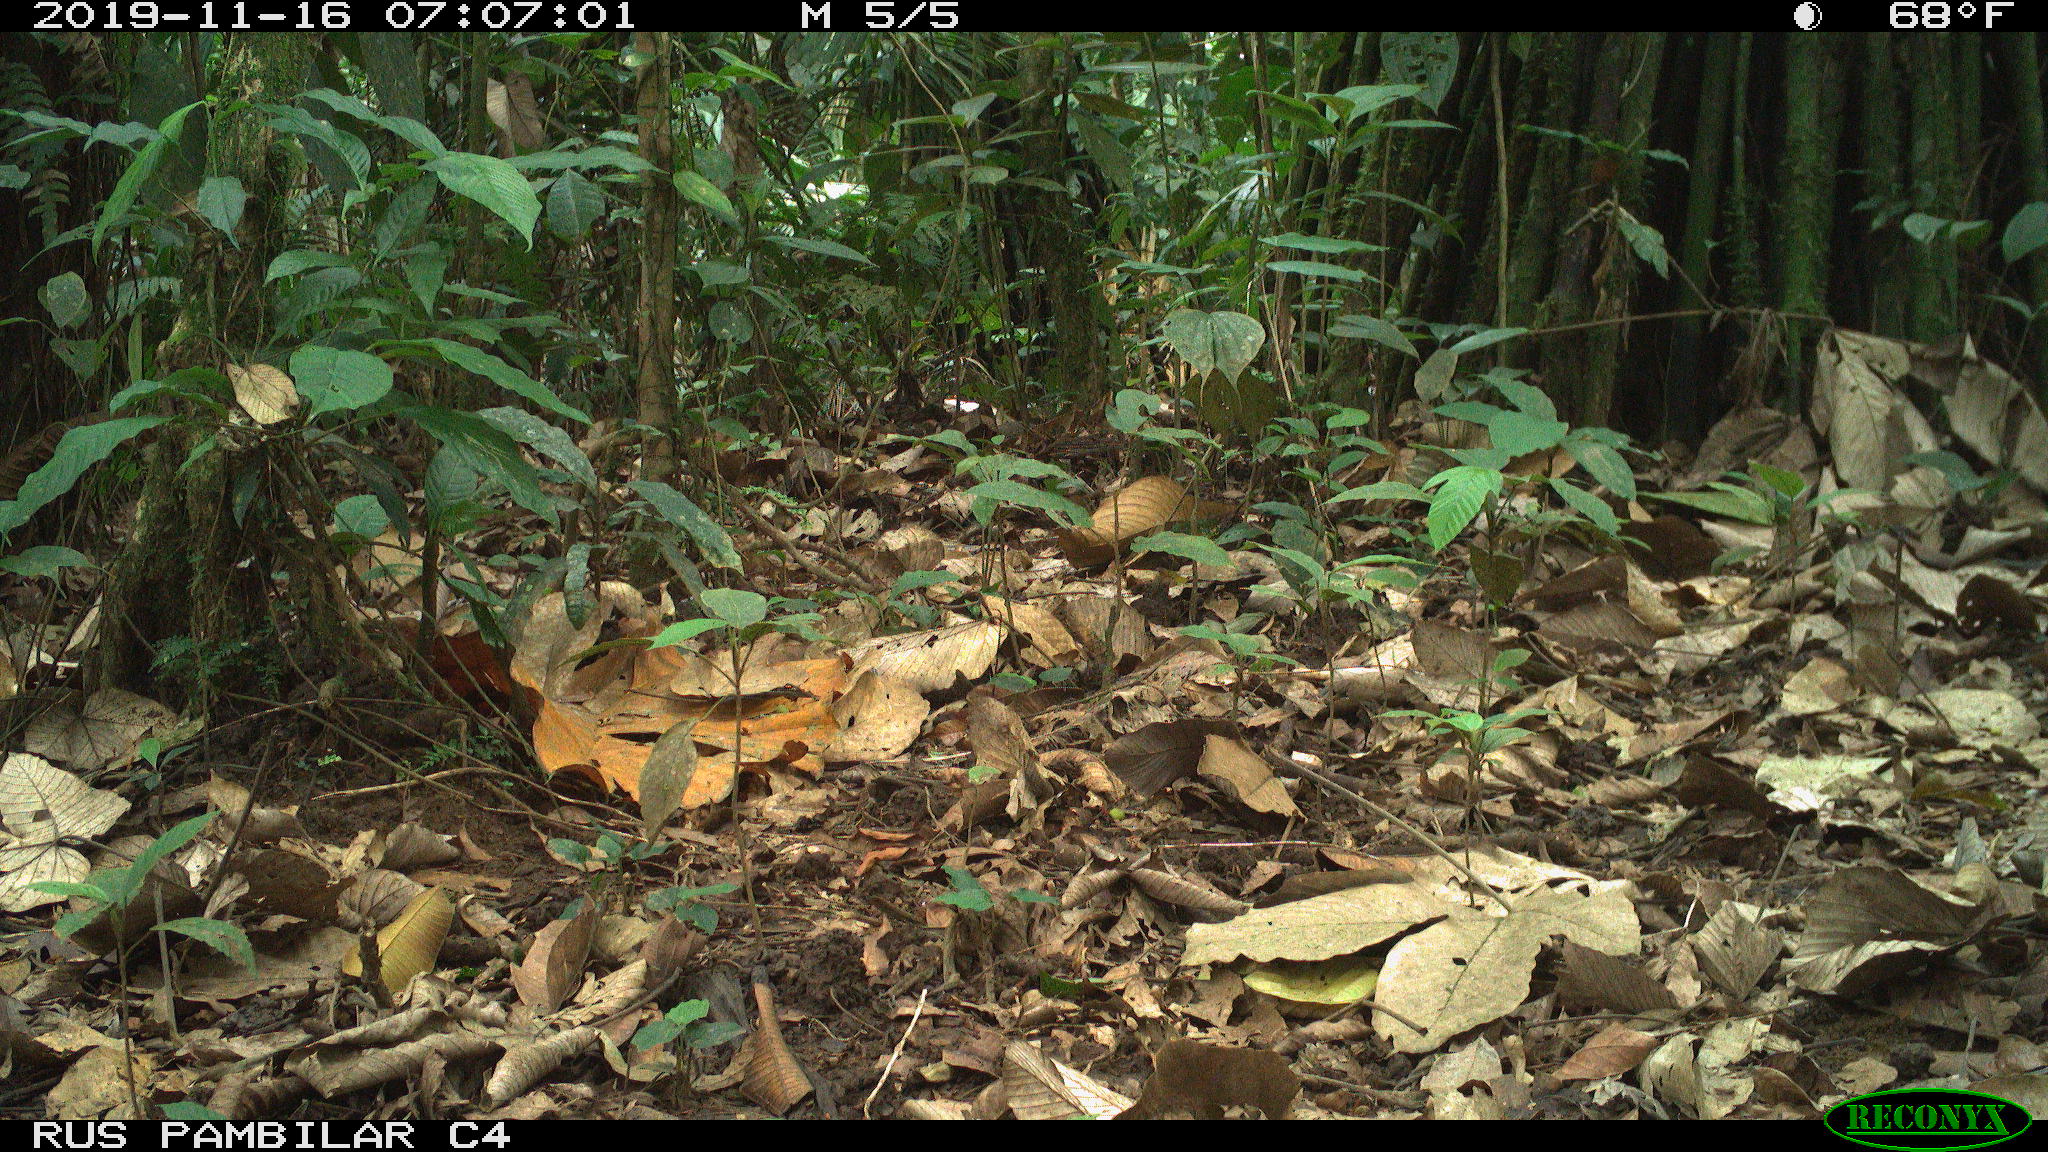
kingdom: Animalia
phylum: Chordata
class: Mammalia
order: Rodentia
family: Dasyproctidae
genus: Dasyprocta
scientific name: Dasyprocta punctata
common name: Central american agouti
